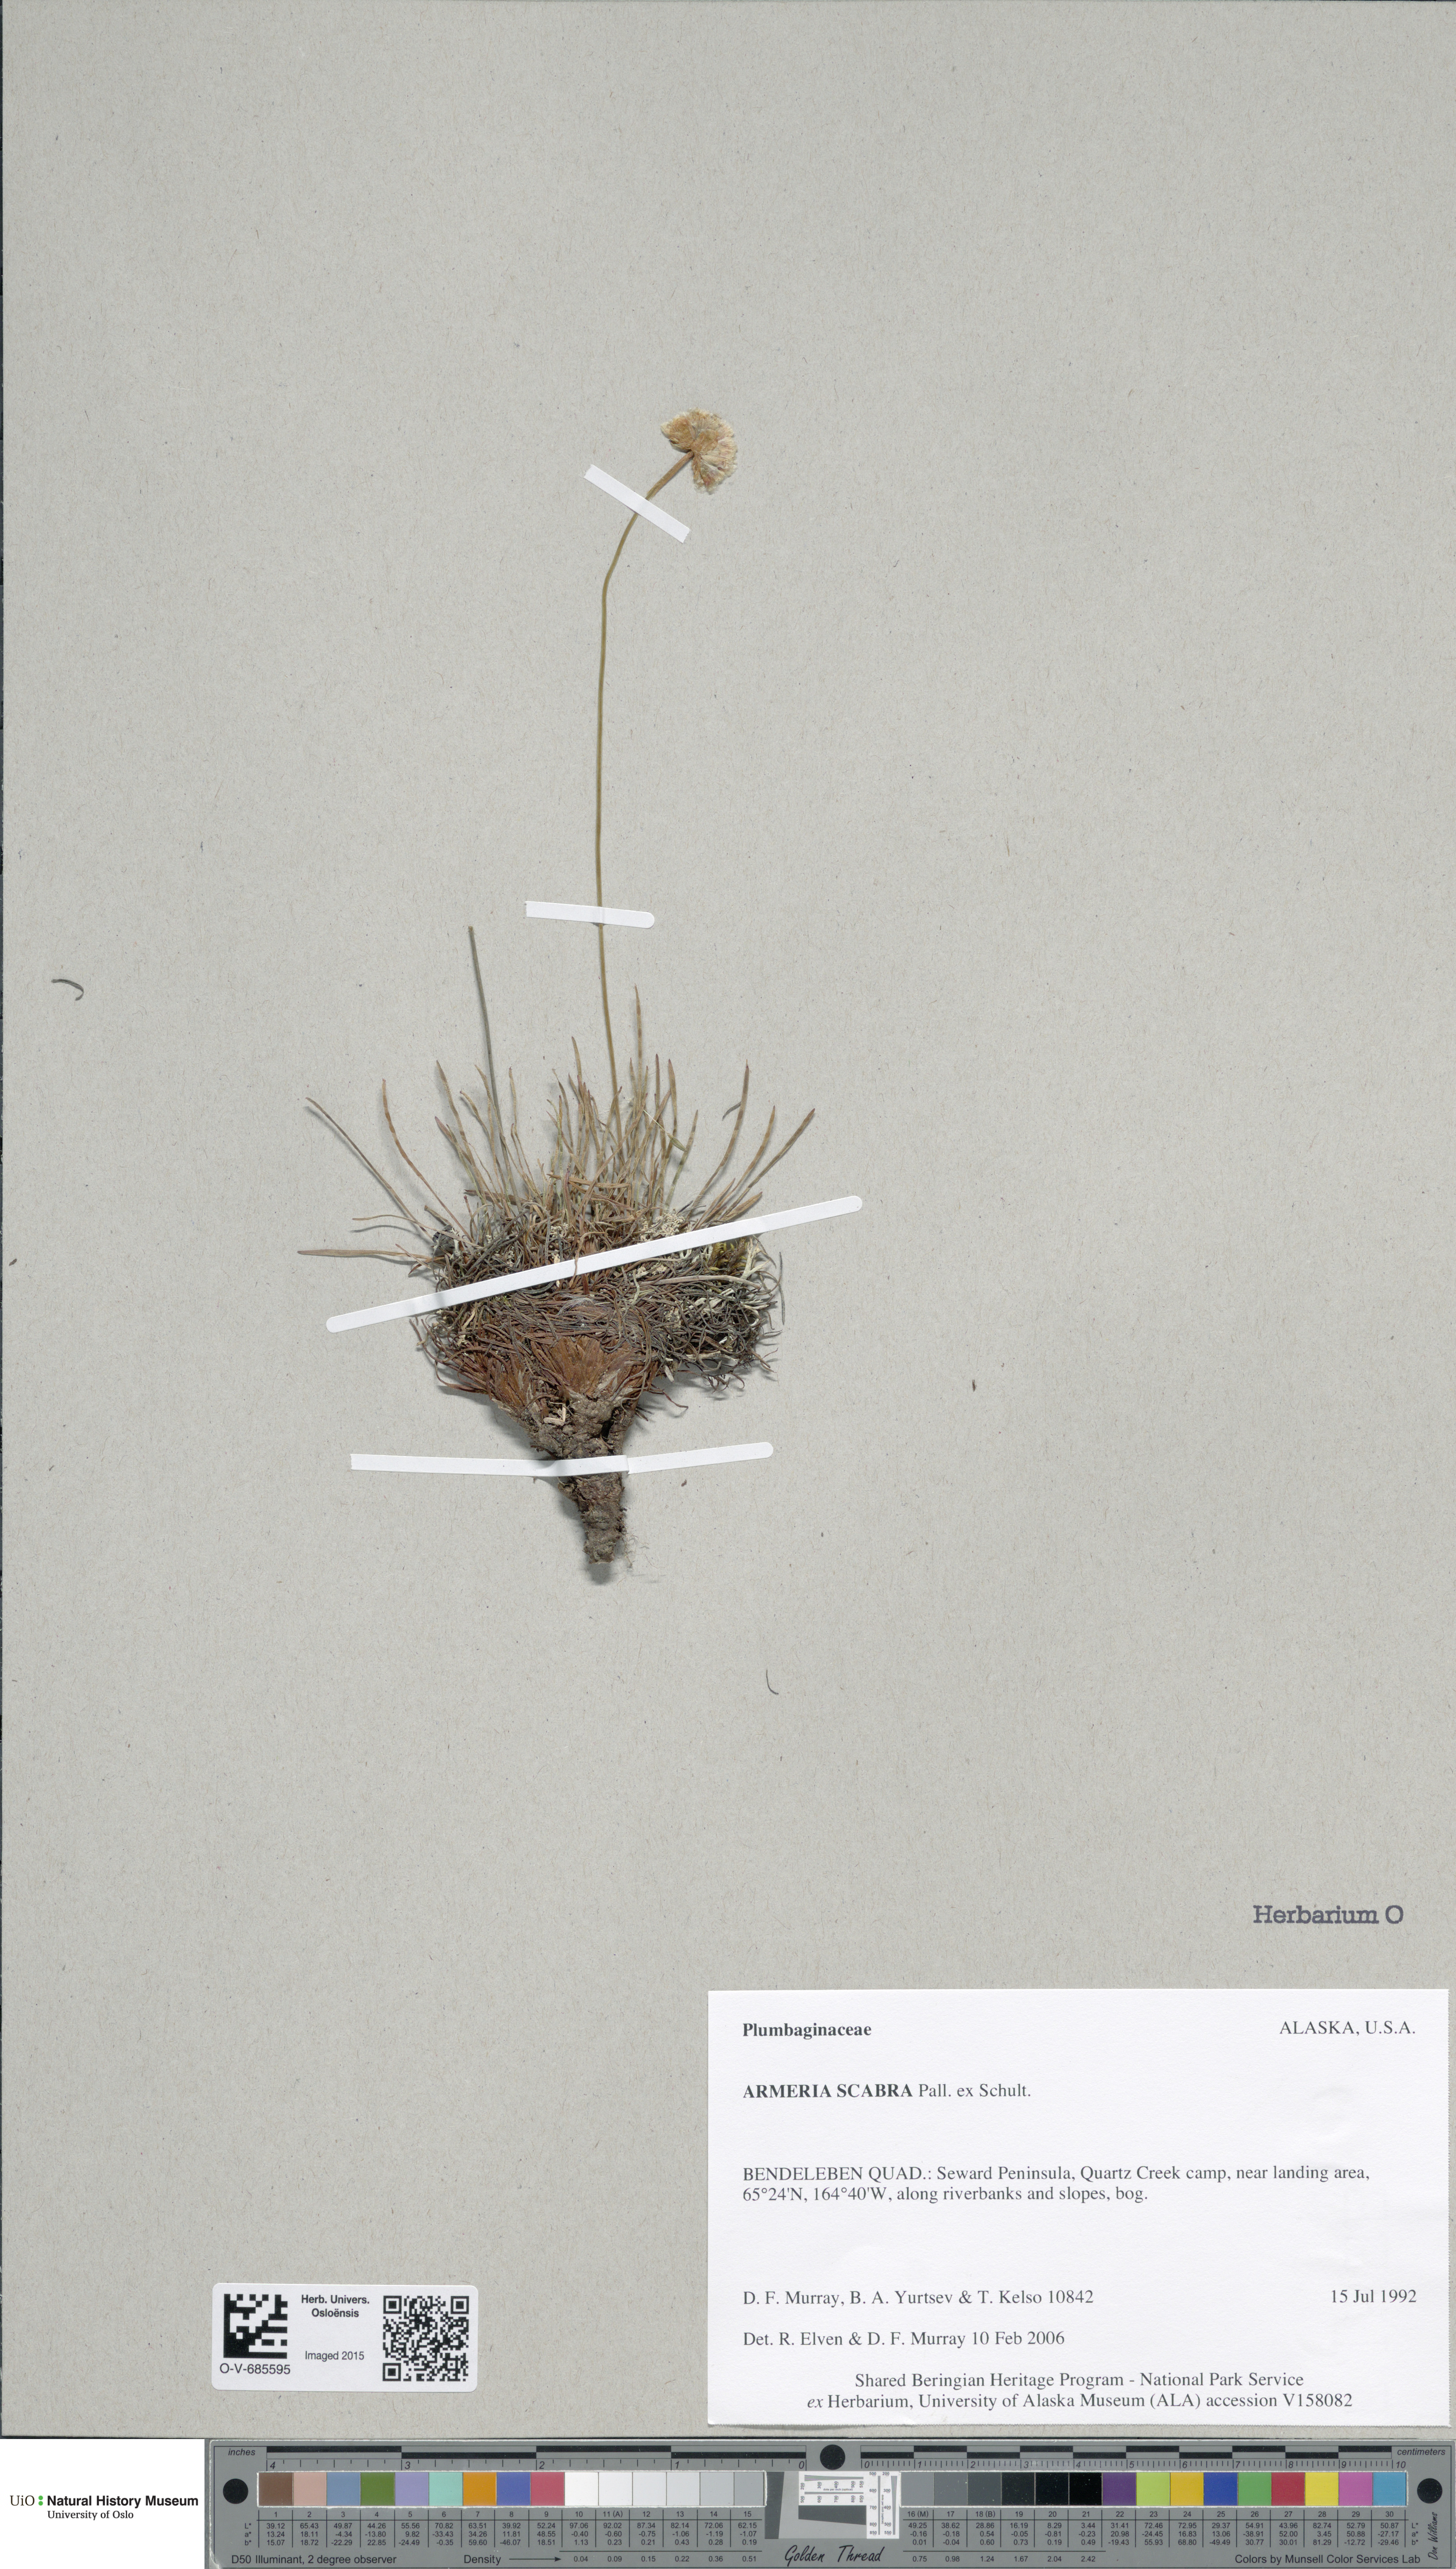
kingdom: Plantae
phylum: Tracheophyta
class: Magnoliopsida
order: Caryophyllales
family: Plumbaginaceae
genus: Armeria
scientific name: Armeria maritima
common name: Thrift
